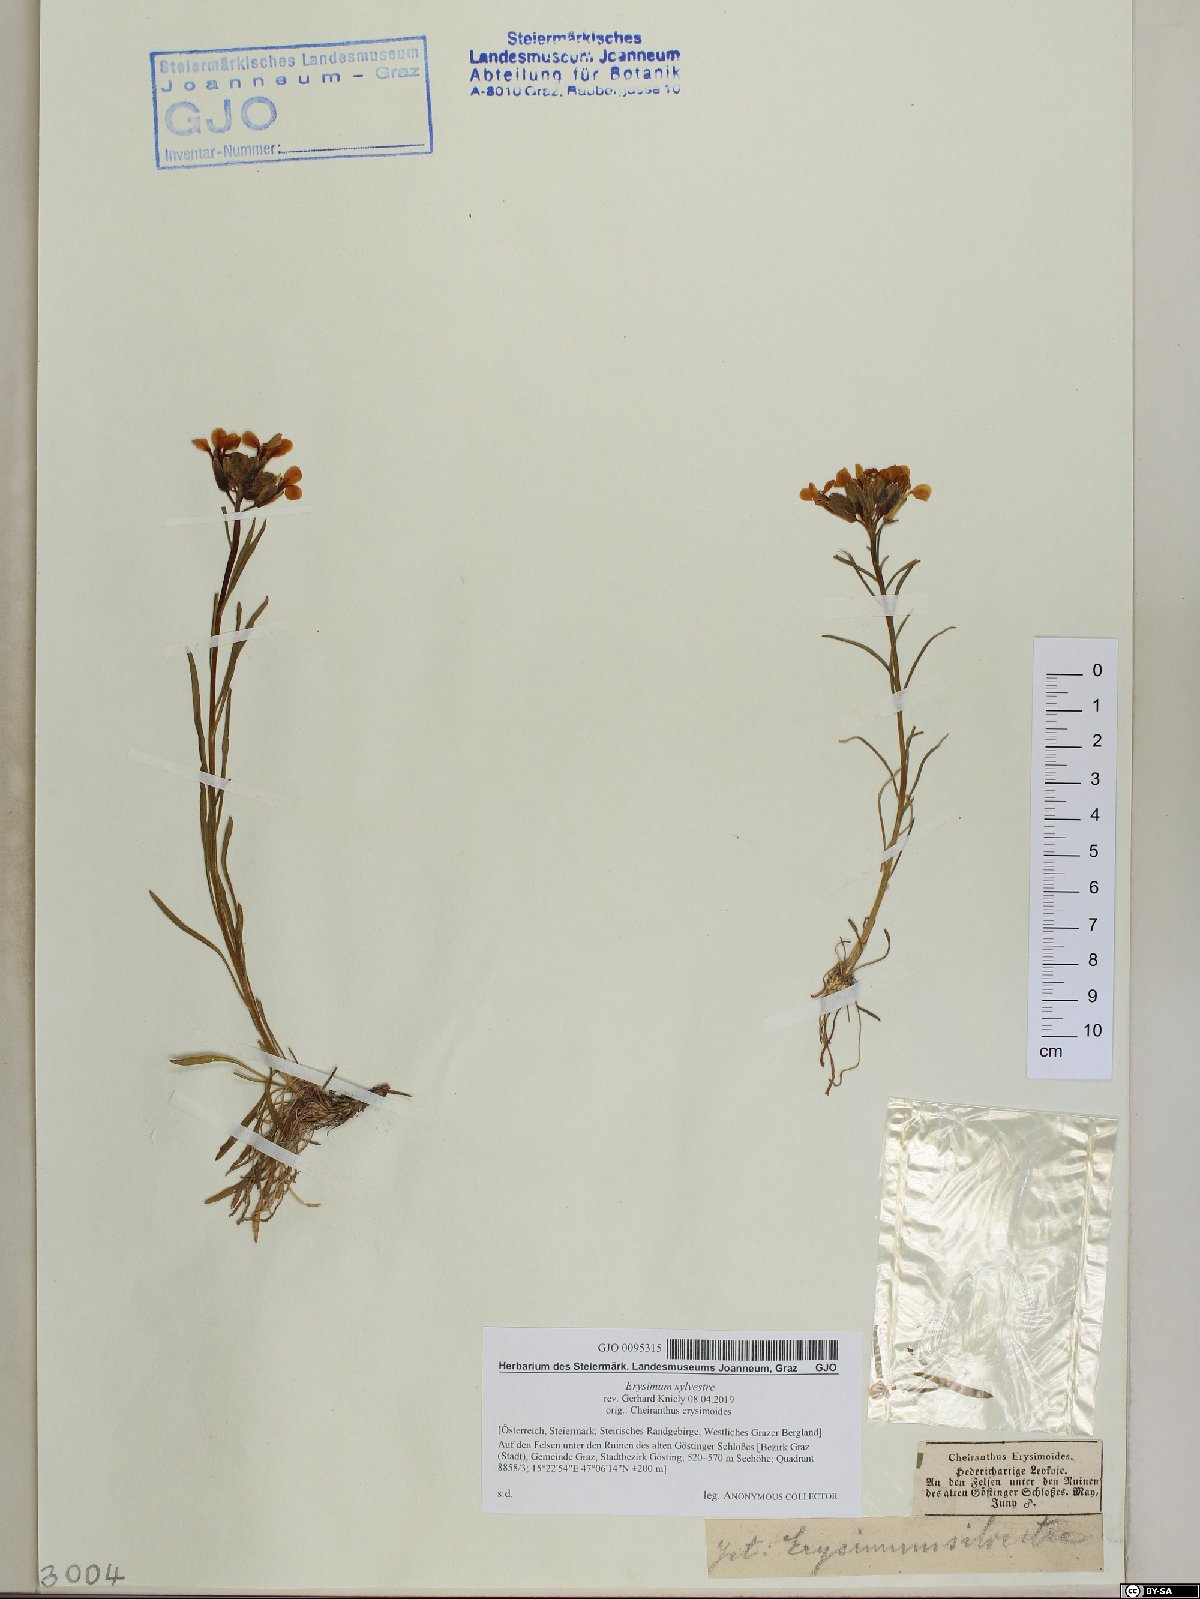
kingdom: Plantae
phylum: Tracheophyta
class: Magnoliopsida
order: Brassicales
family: Brassicaceae
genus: Erysimum
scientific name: Erysimum sylvestre
